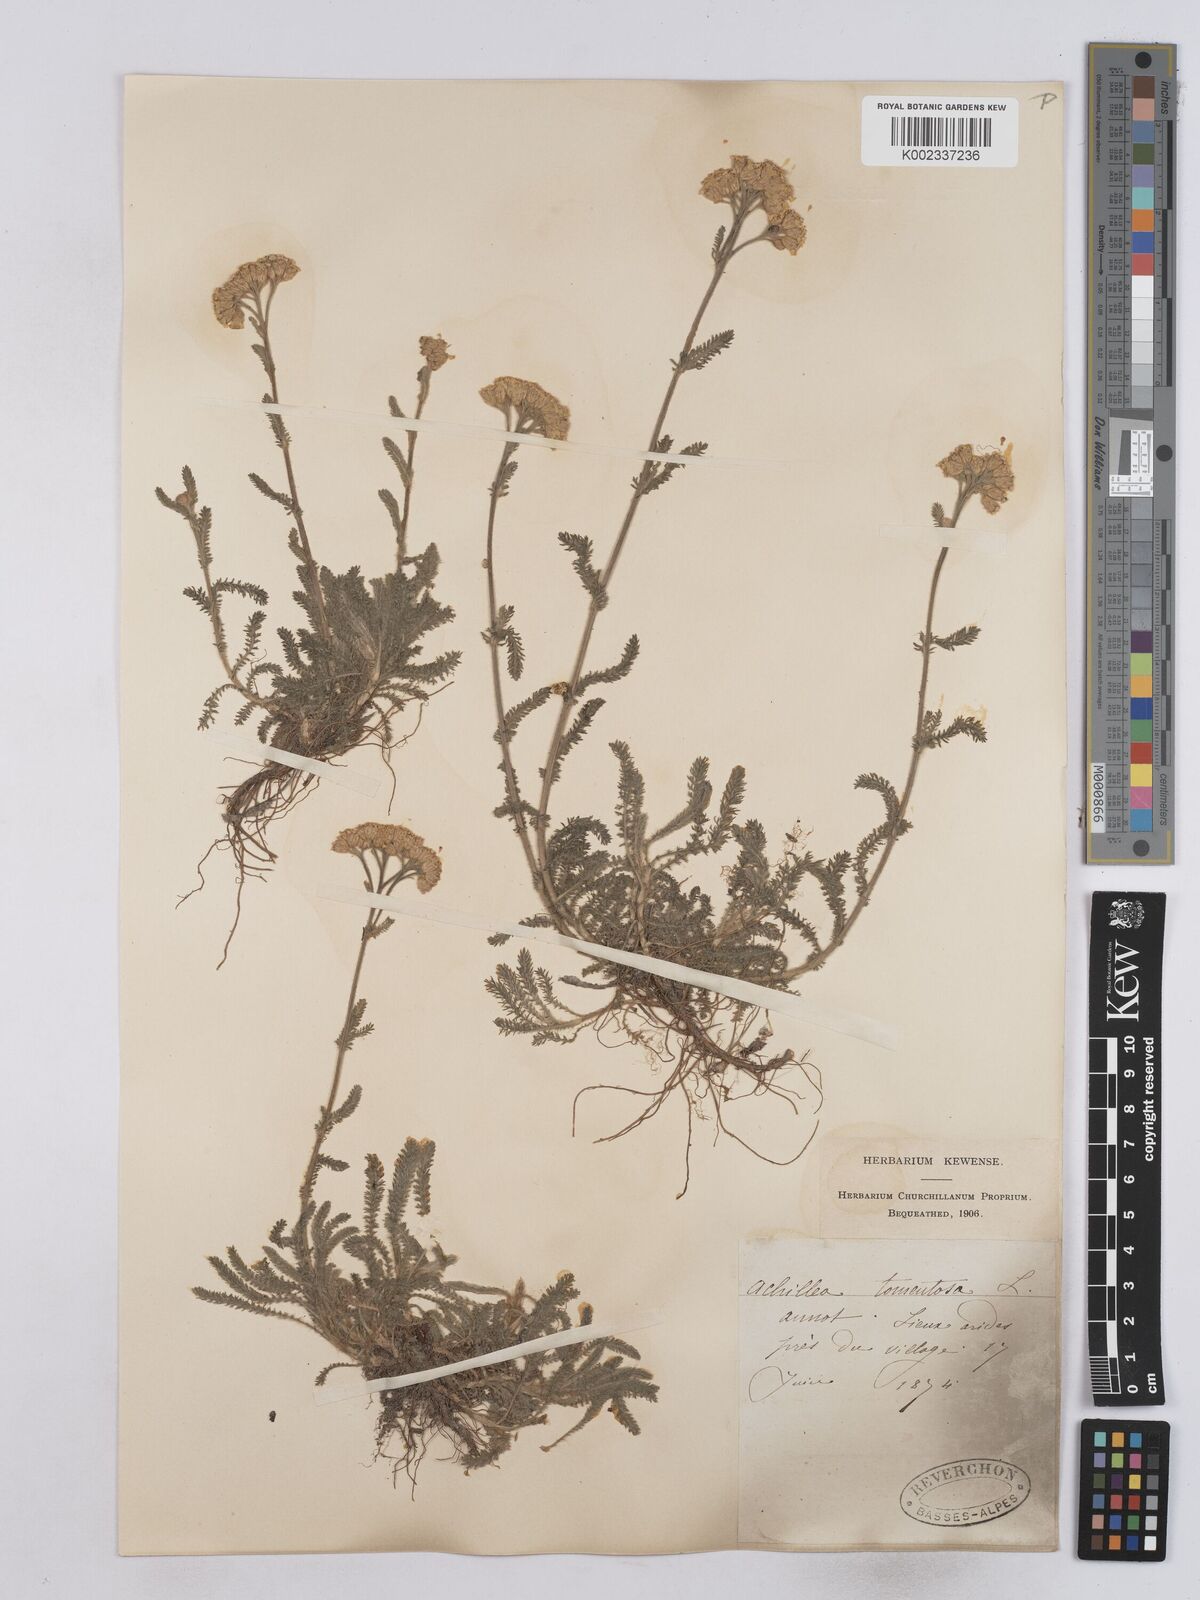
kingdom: Plantae
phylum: Tracheophyta
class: Magnoliopsida
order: Asterales
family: Asteraceae
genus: Achillea
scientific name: Achillea tomentosa
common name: Yellow milfoil
